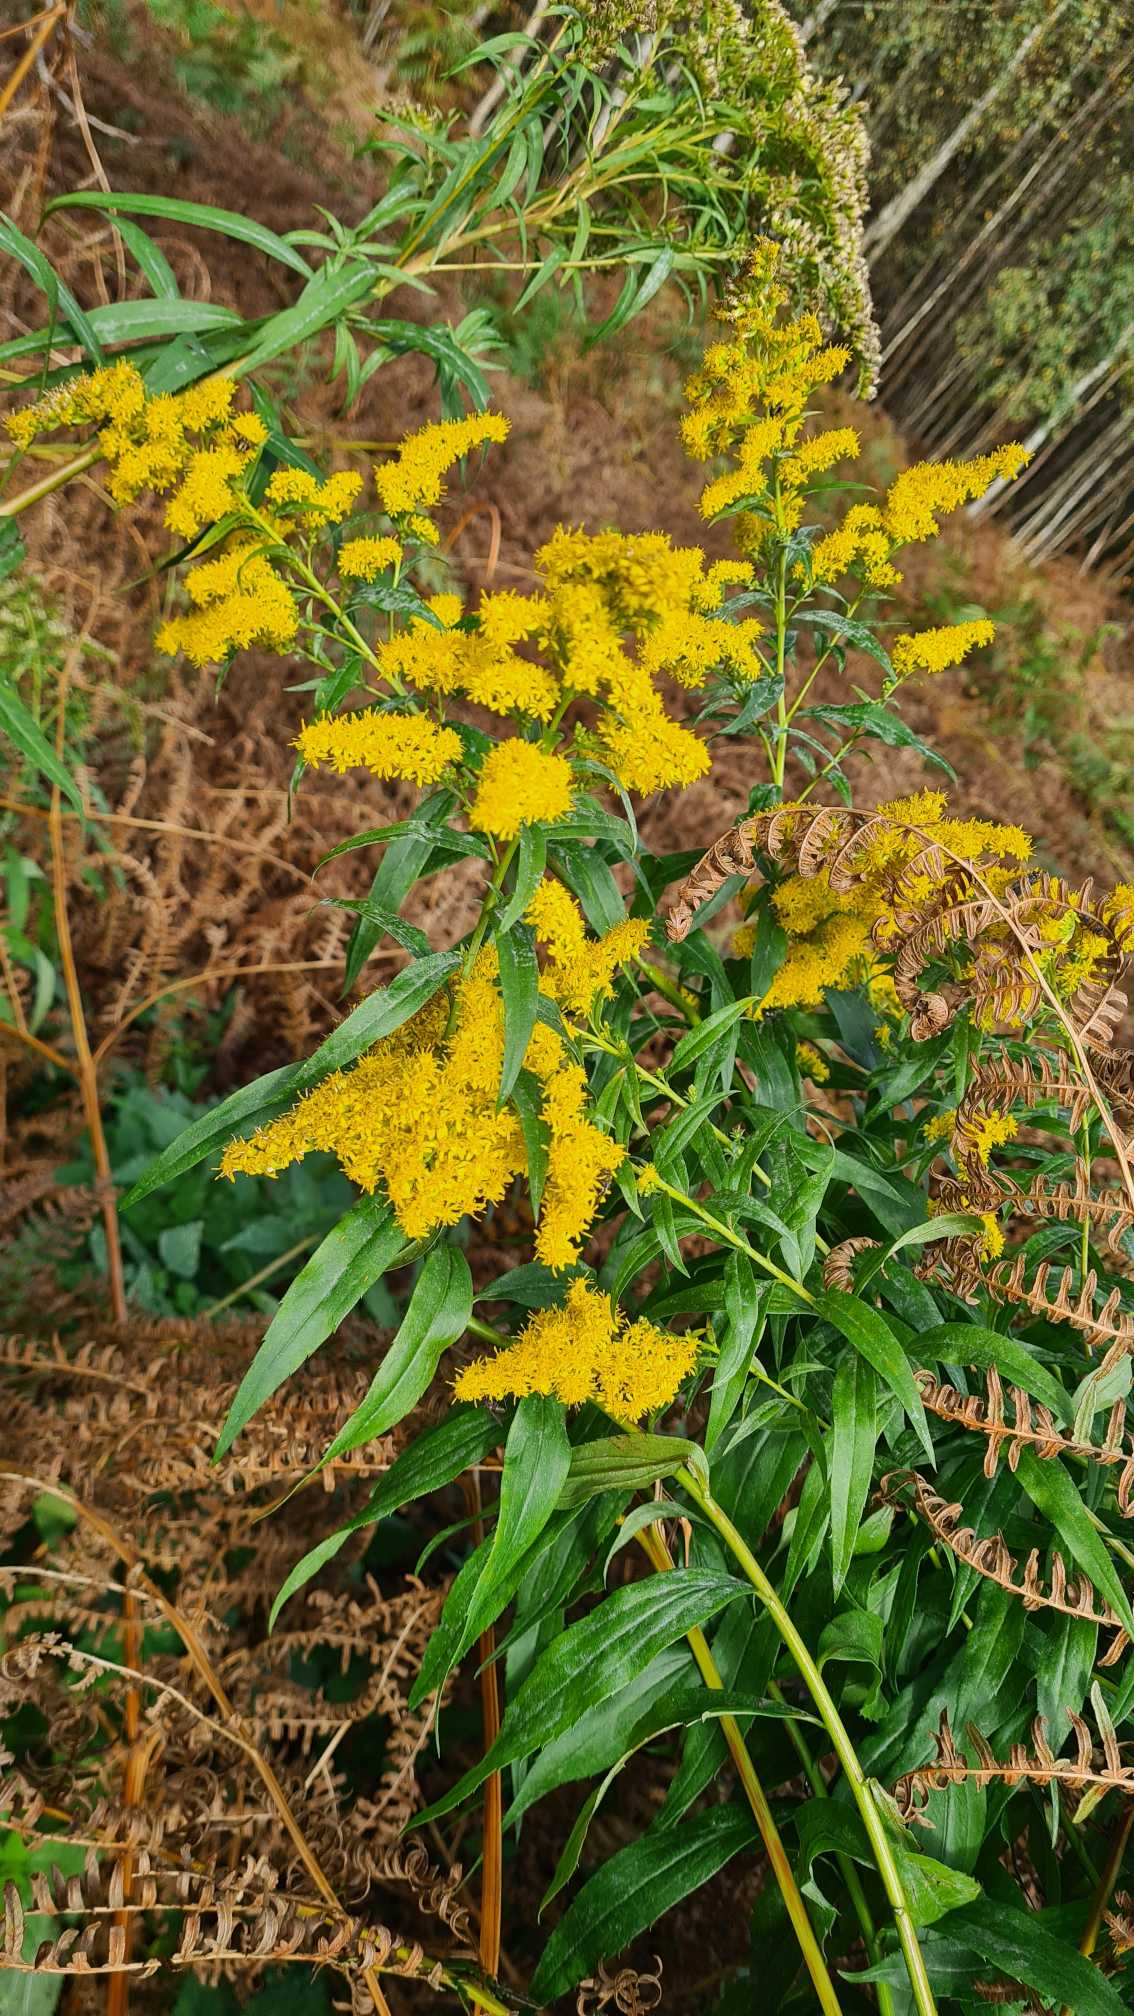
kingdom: Plantae
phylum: Tracheophyta
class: Magnoliopsida
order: Asterales
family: Asteraceae
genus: Solidago
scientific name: Solidago gigantea
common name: Sildig gyldenris
